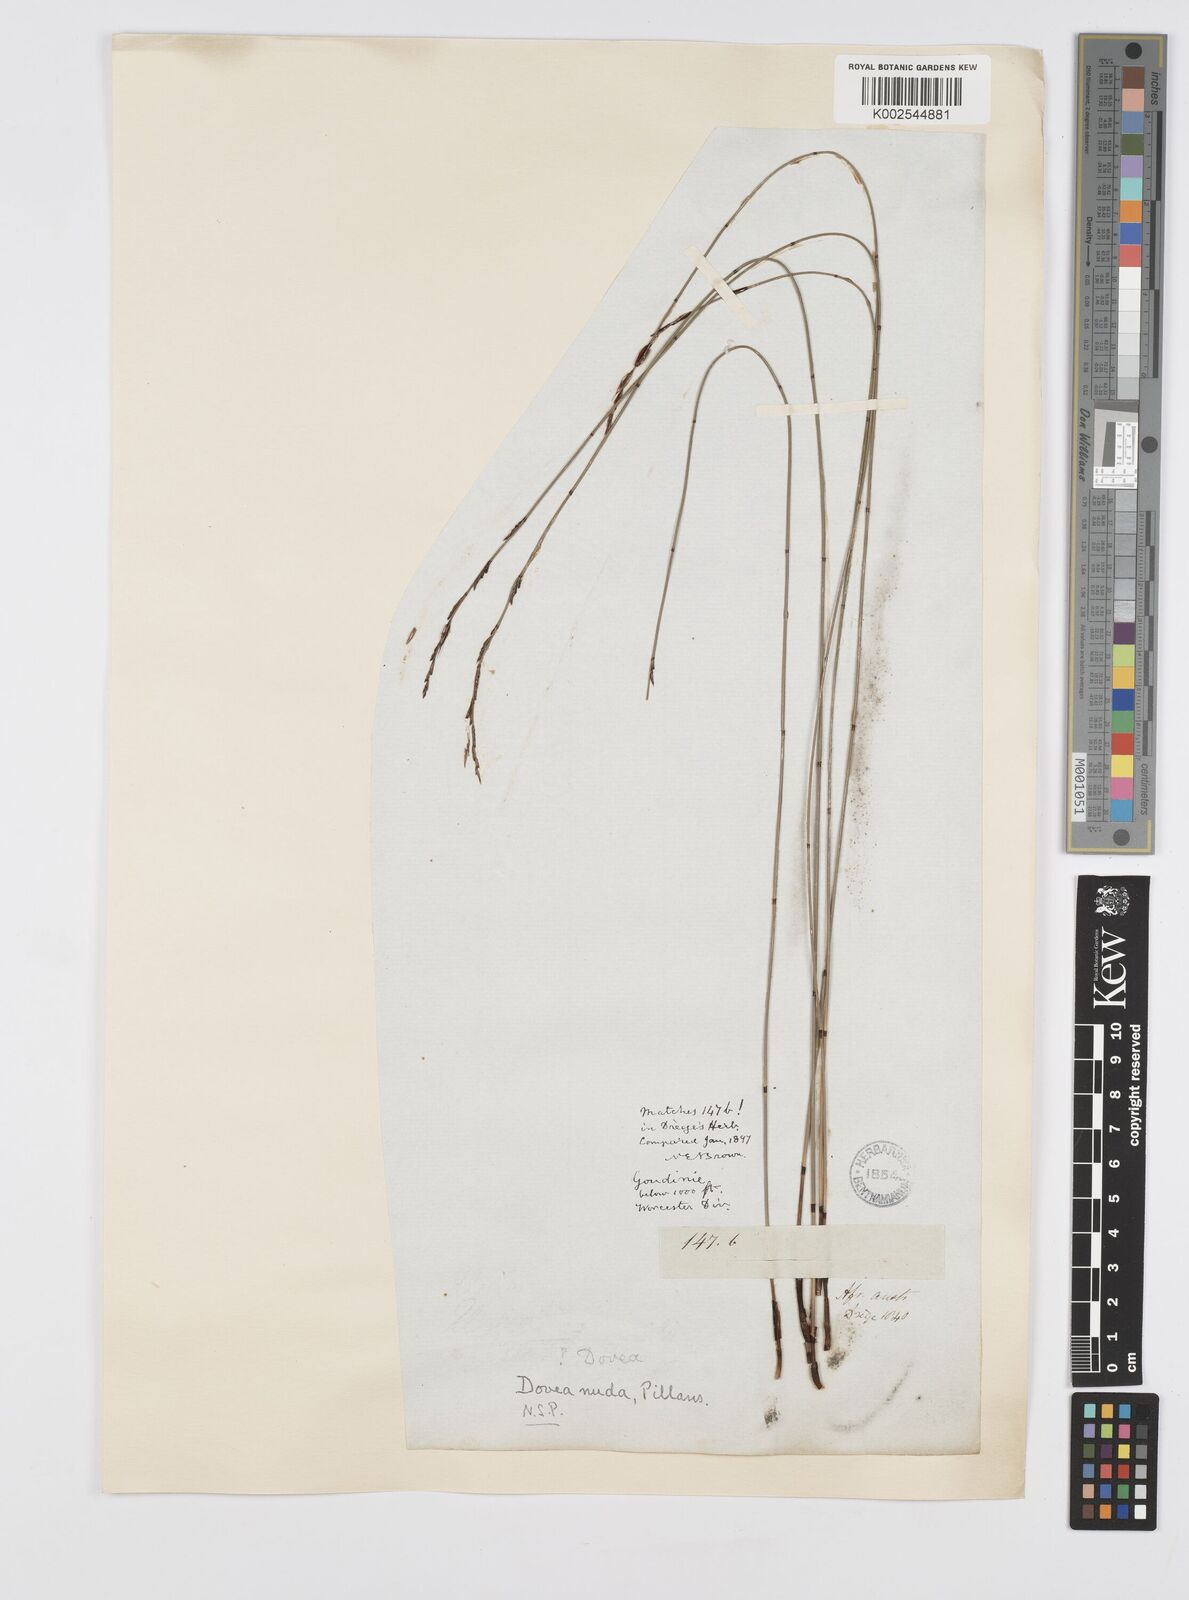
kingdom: Plantae
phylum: Tracheophyta
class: Liliopsida
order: Poales
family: Restionaceae
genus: Elegia
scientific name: Elegia nuda
